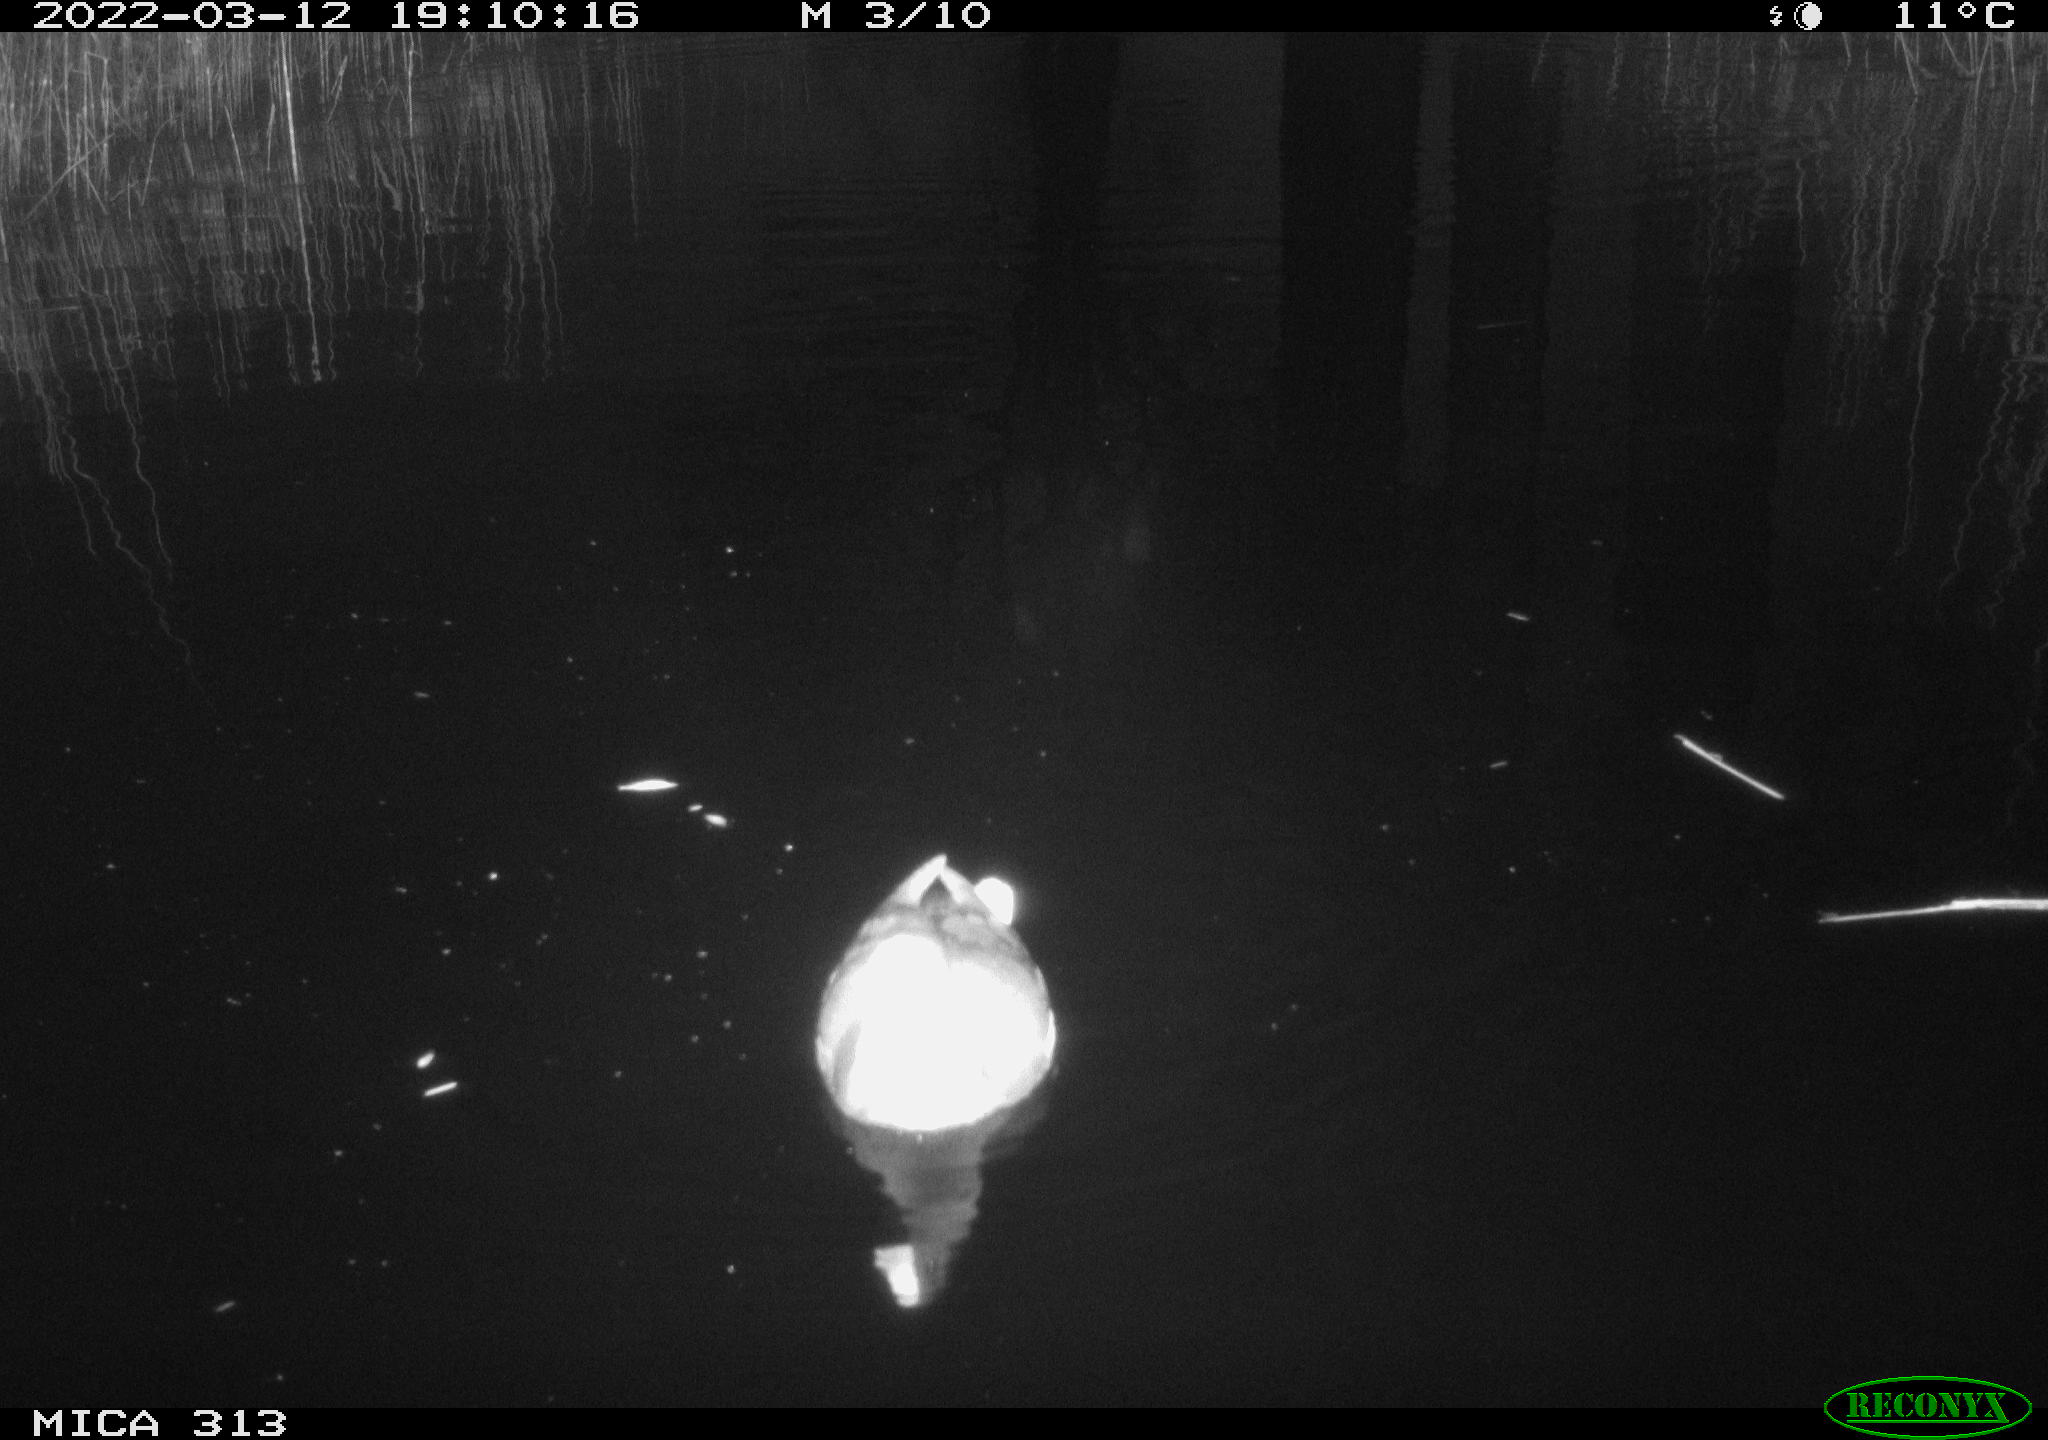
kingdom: Animalia
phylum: Chordata
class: Aves
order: Gruiformes
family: Rallidae
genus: Gallinula
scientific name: Gallinula chloropus
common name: Common moorhen
